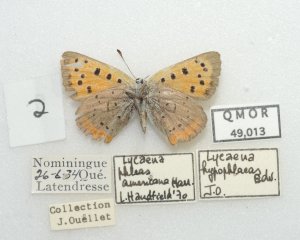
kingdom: Animalia
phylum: Arthropoda
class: Insecta
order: Lepidoptera
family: Lycaenidae
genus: Lycaena
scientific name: Lycaena phlaeas
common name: American Copper
